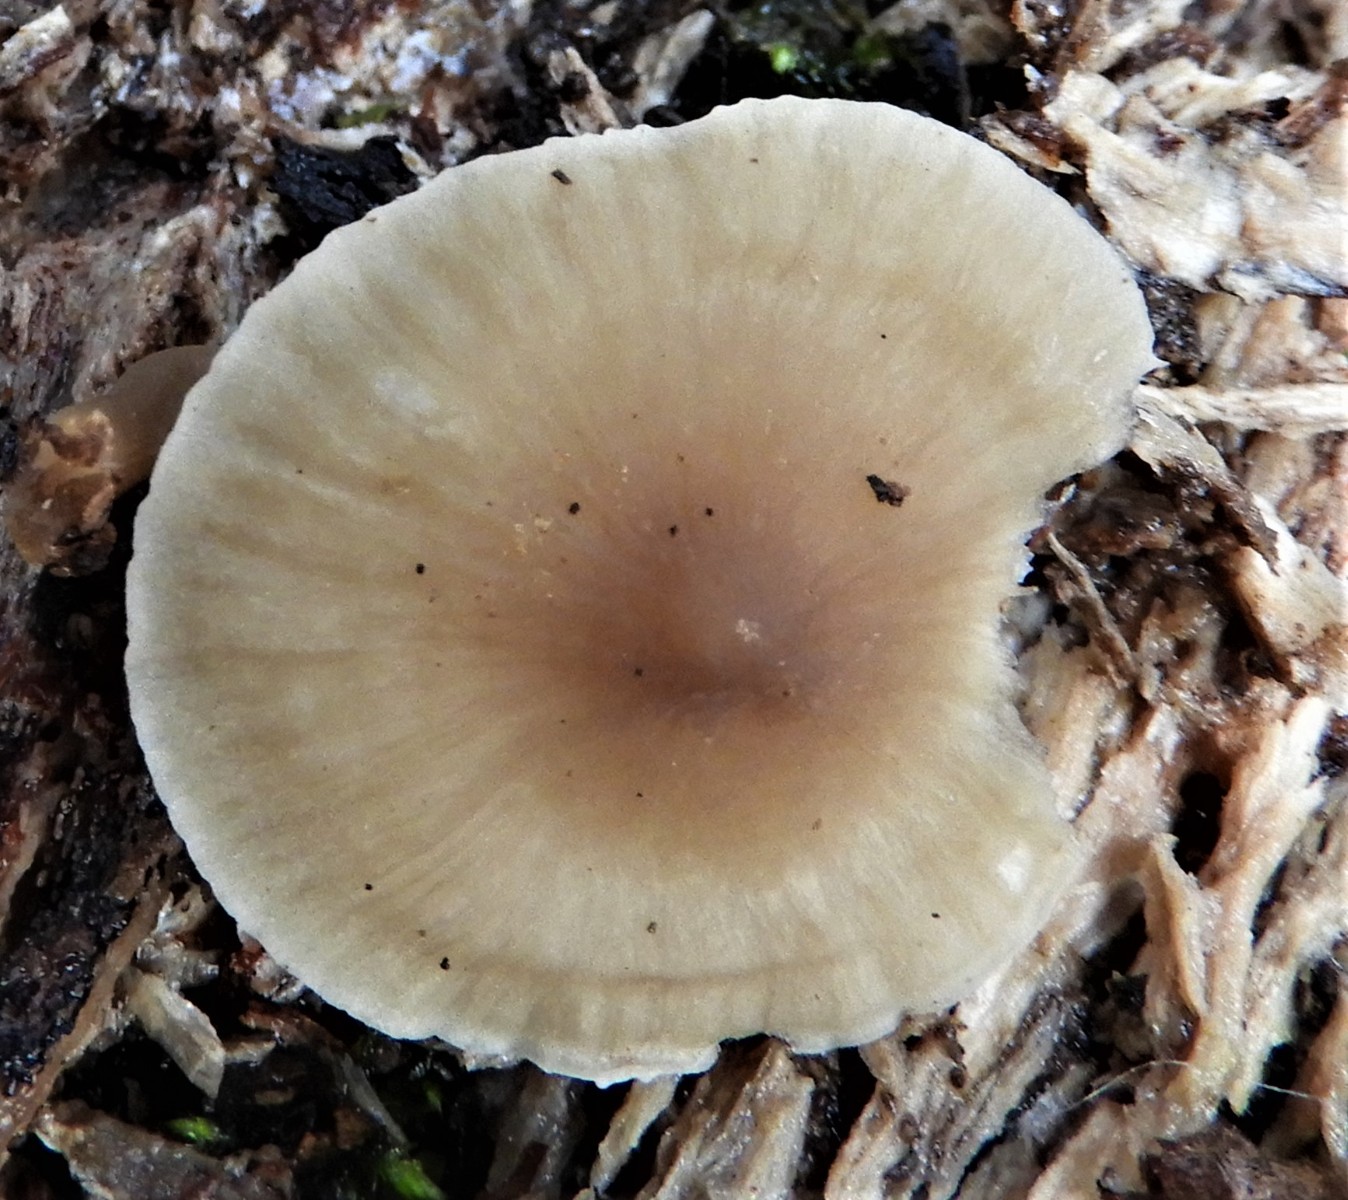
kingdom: Fungi
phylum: Basidiomycota
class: Agaricomycetes
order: Agaricales
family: Mycenaceae
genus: Mycena
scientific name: Mycena galericulata
